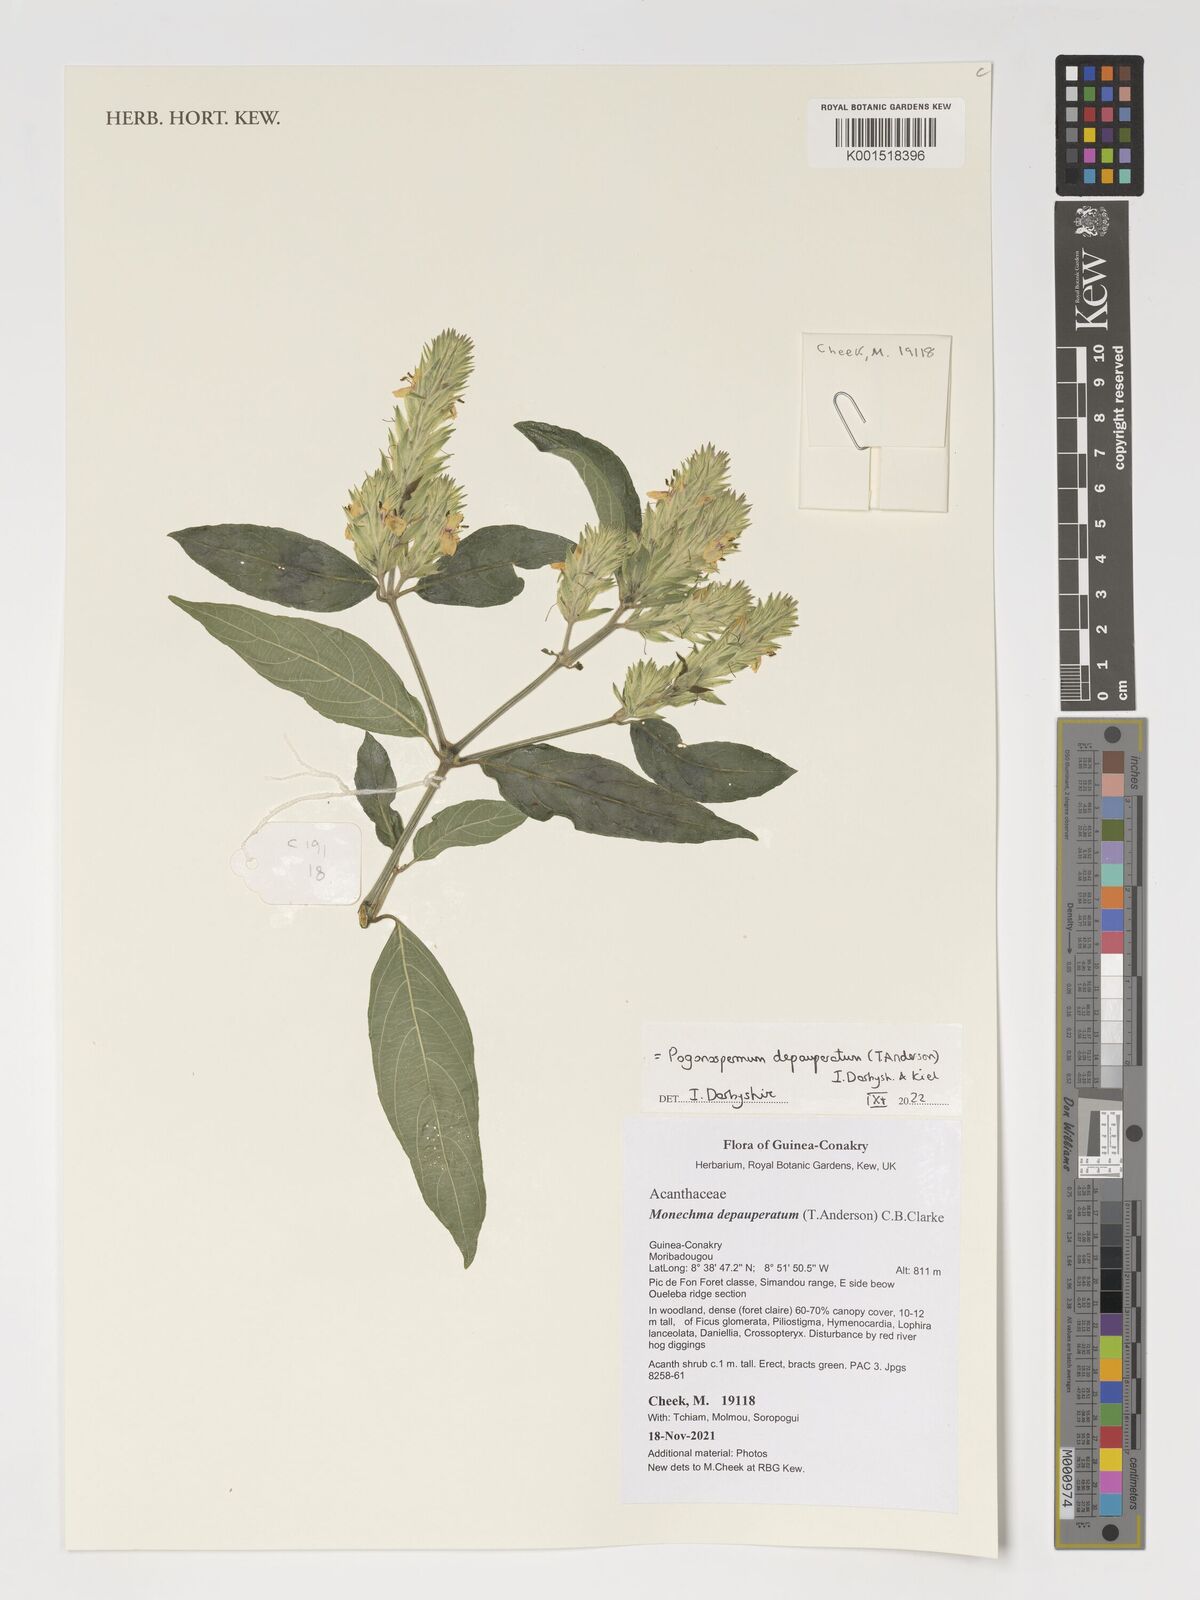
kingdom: Plantae
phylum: Tracheophyta
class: Magnoliopsida
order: Lamiales
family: Acanthaceae
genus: Monechma
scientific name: Monechma depauperatum
